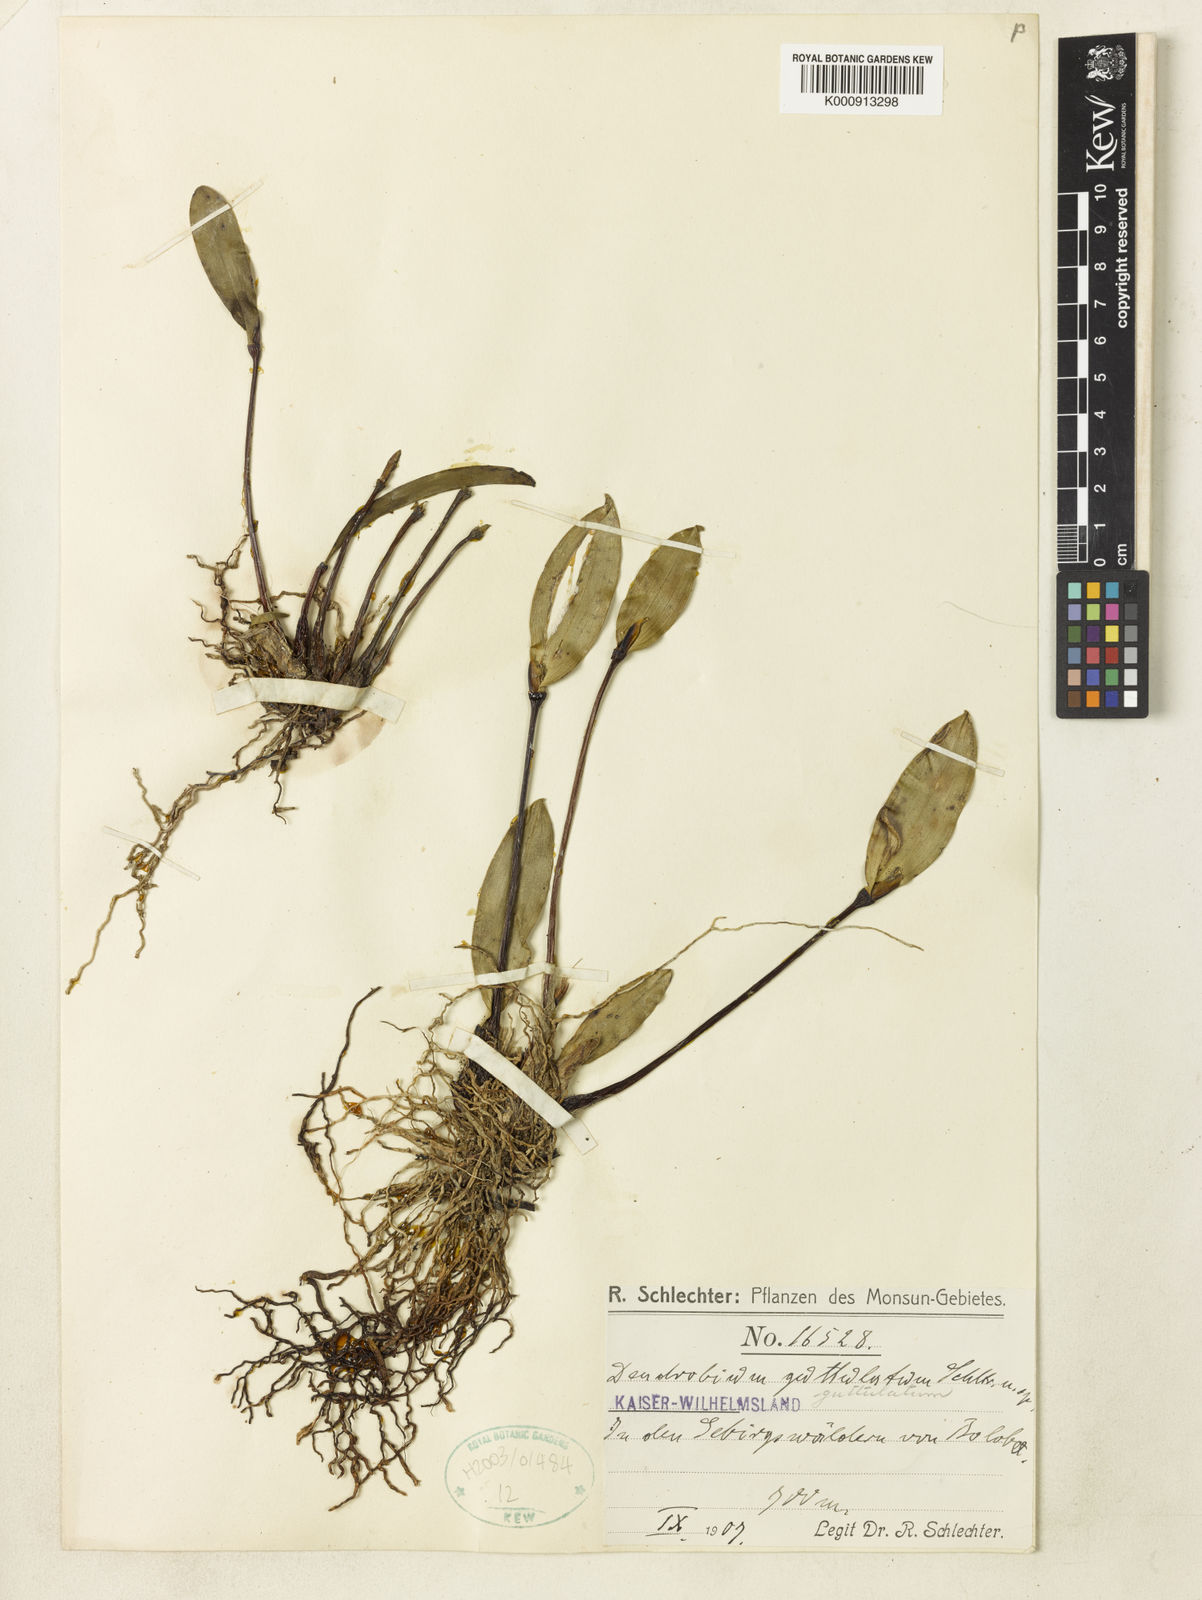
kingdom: Plantae
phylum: Tracheophyta
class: Liliopsida
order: Asparagales
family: Orchidaceae
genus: Dendrobium
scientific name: Dendrobium guttulatum
